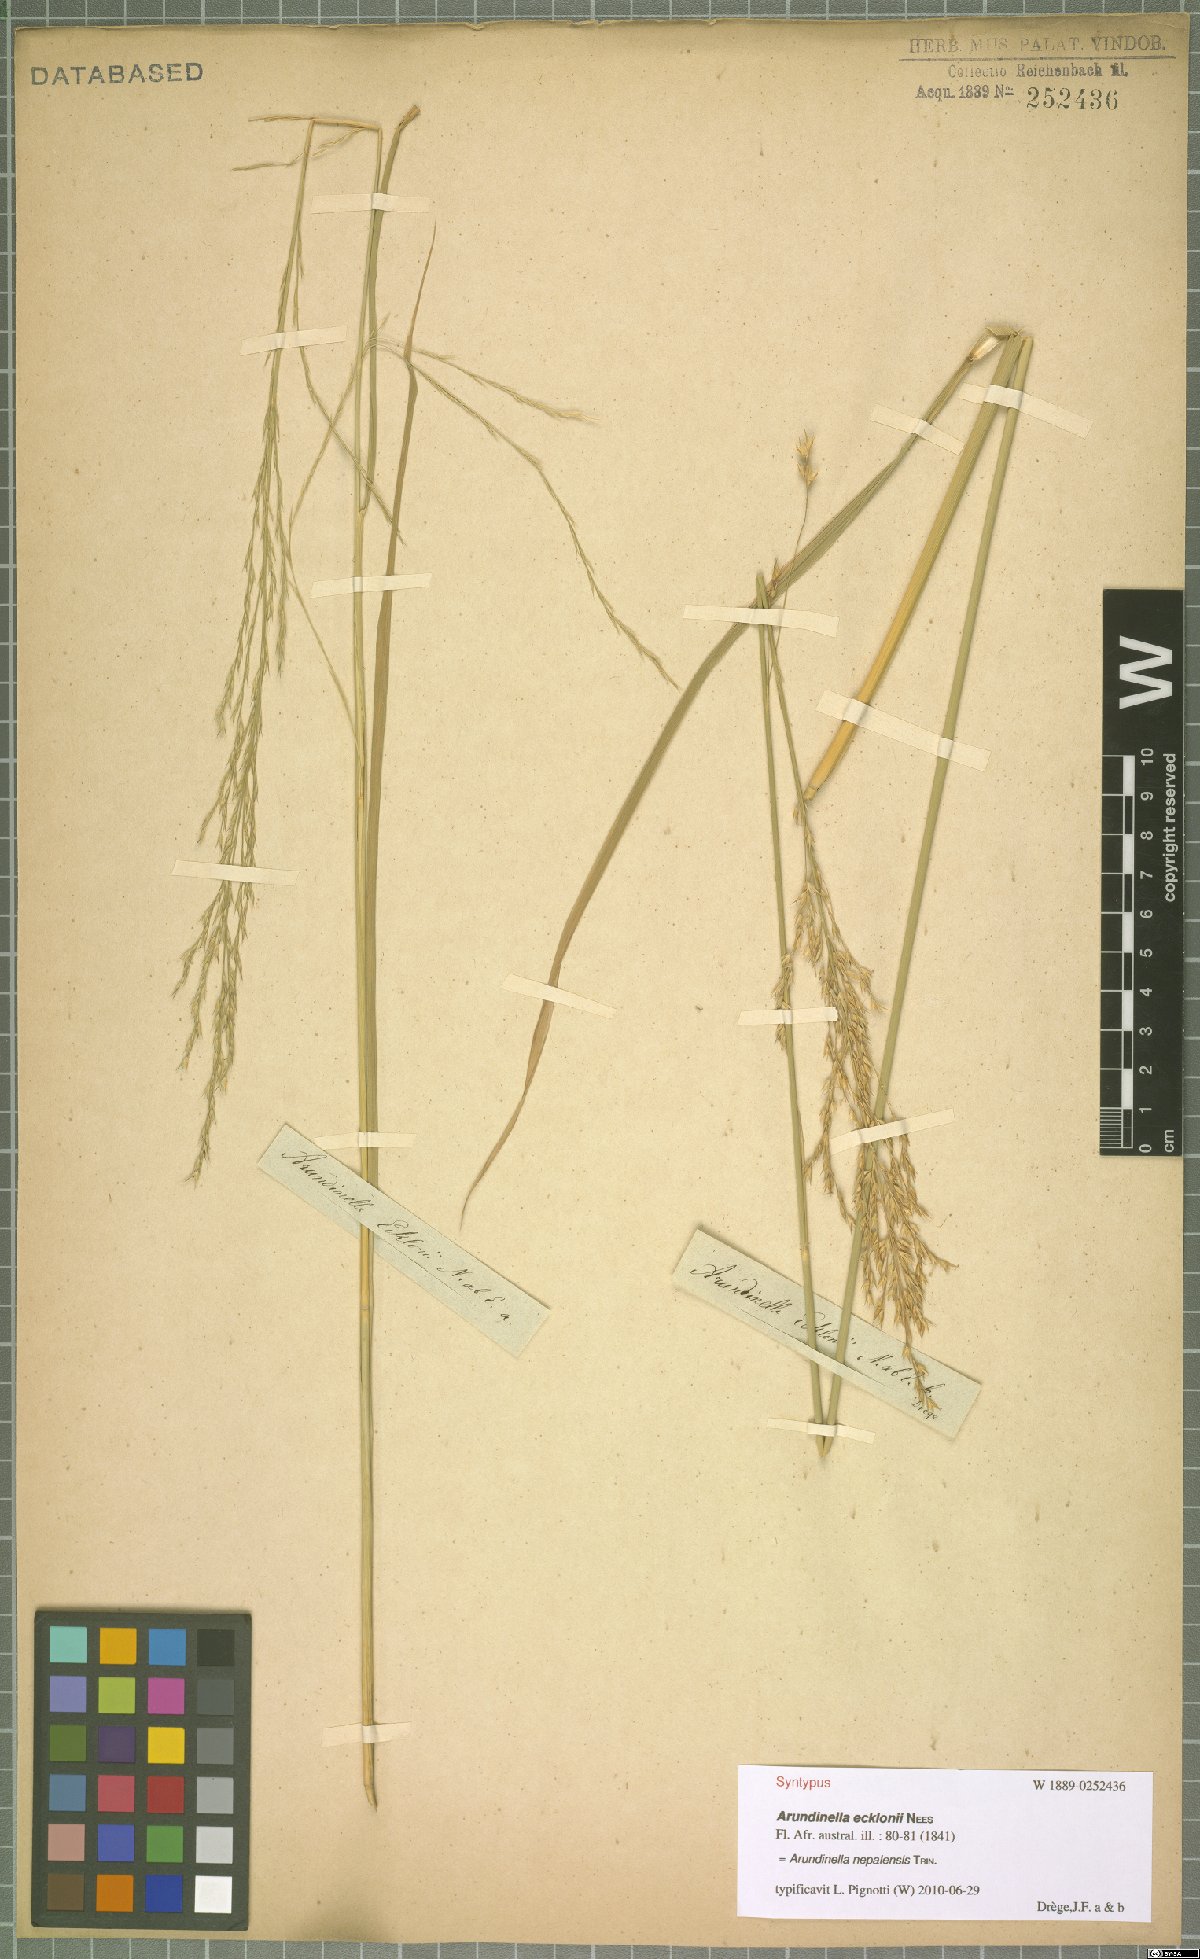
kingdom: Plantae
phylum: Tracheophyta
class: Liliopsida
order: Poales
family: Poaceae
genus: Arundinella
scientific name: Arundinella nepalensis
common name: Reed grass
